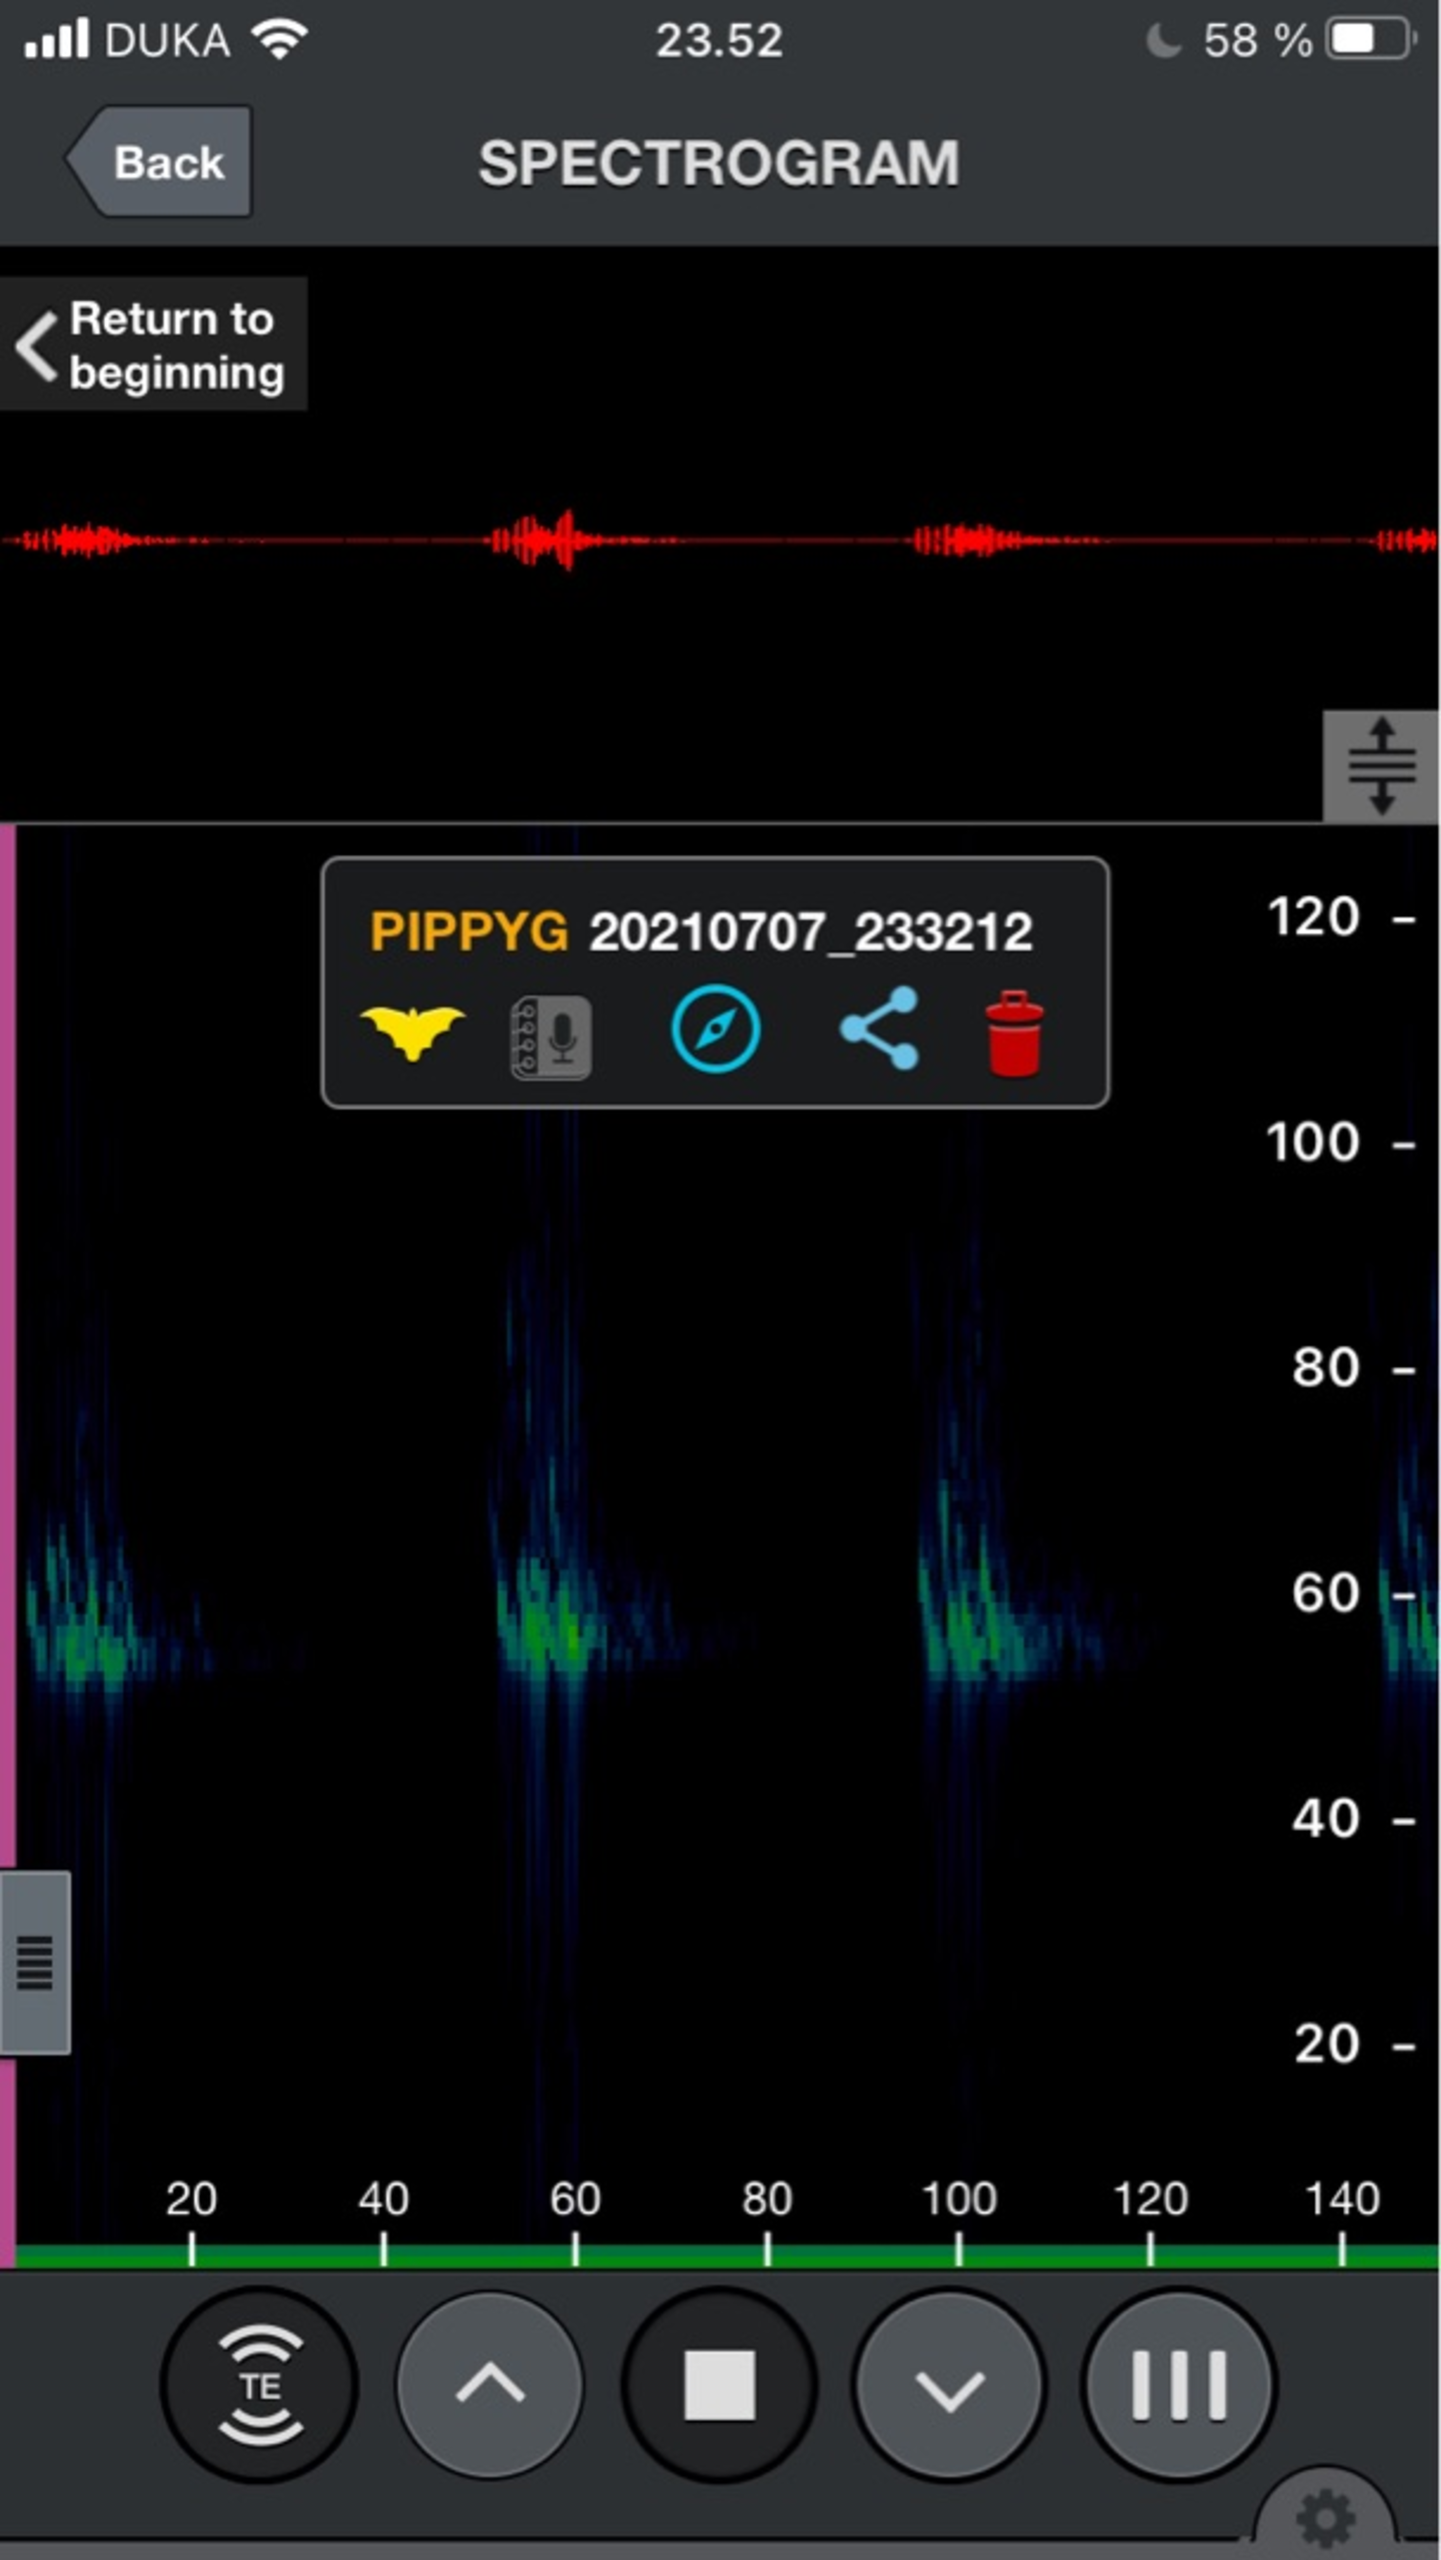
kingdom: Animalia
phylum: Chordata
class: Mammalia
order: Chiroptera
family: Vespertilionidae
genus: Pipistrellus
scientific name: Pipistrellus pygmaeus
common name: Dværgflagermus
